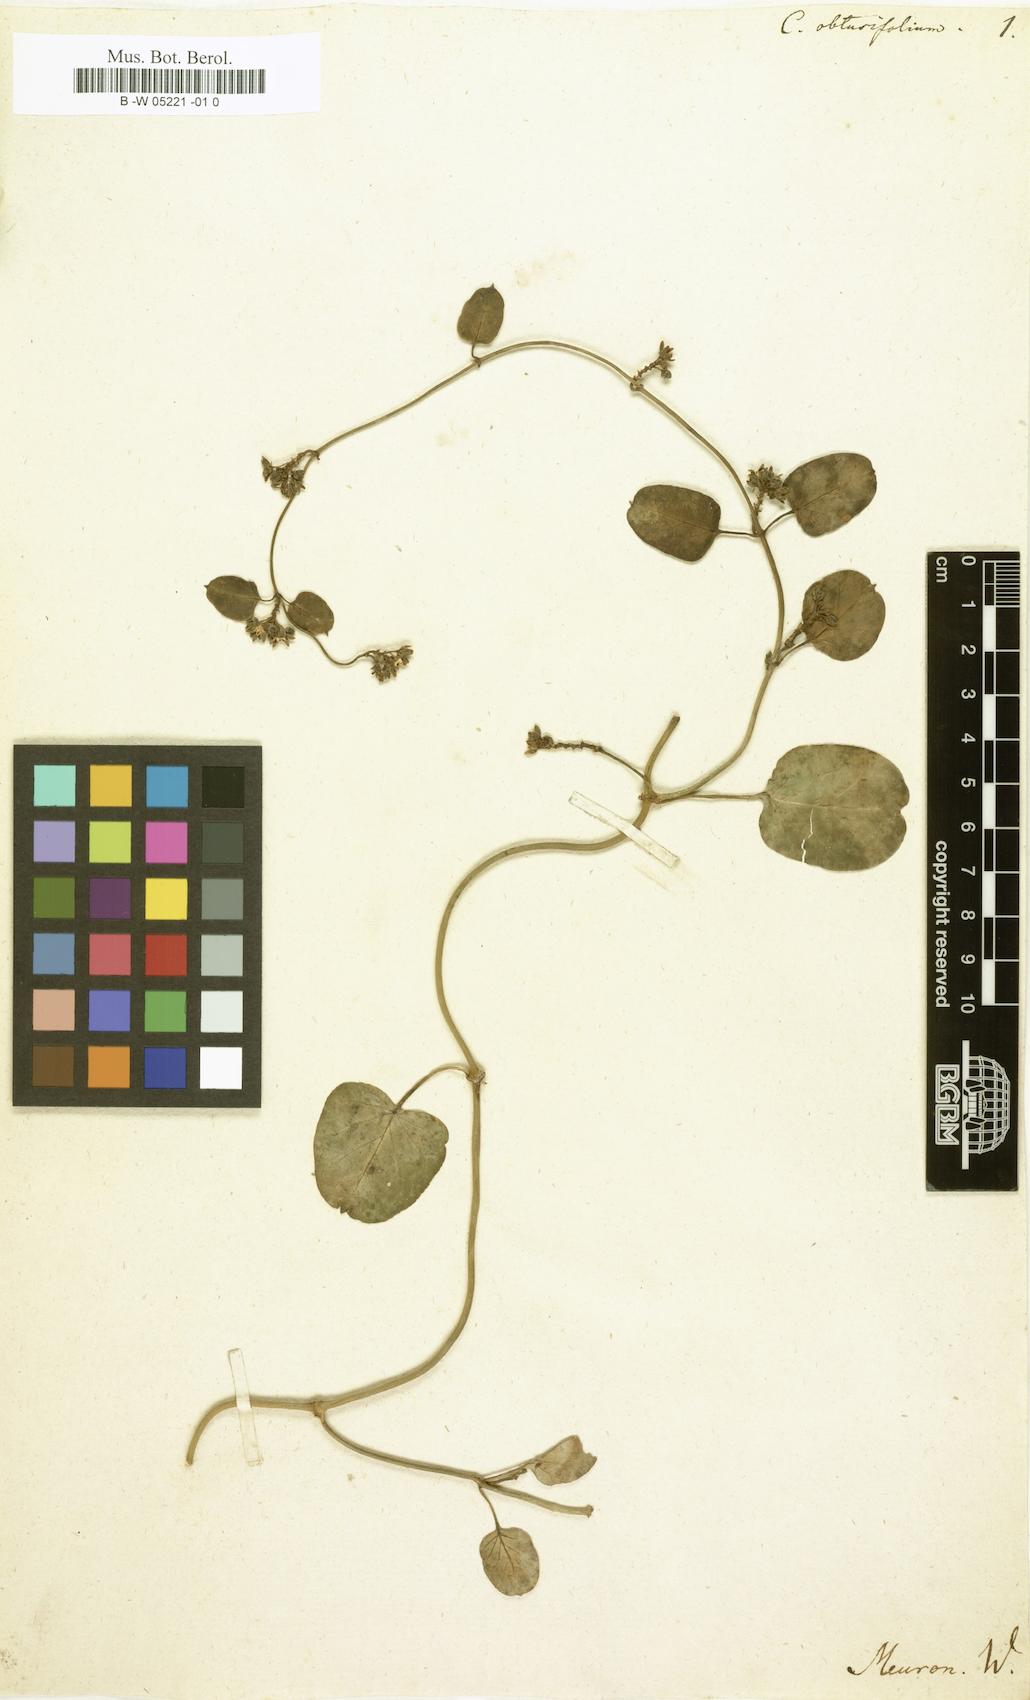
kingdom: Plantae
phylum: Tracheophyta
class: Magnoliopsida
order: Gentianales
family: Apocynaceae
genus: Cynanchum
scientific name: Cynanchum obtusifolium
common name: Monkey-rope
